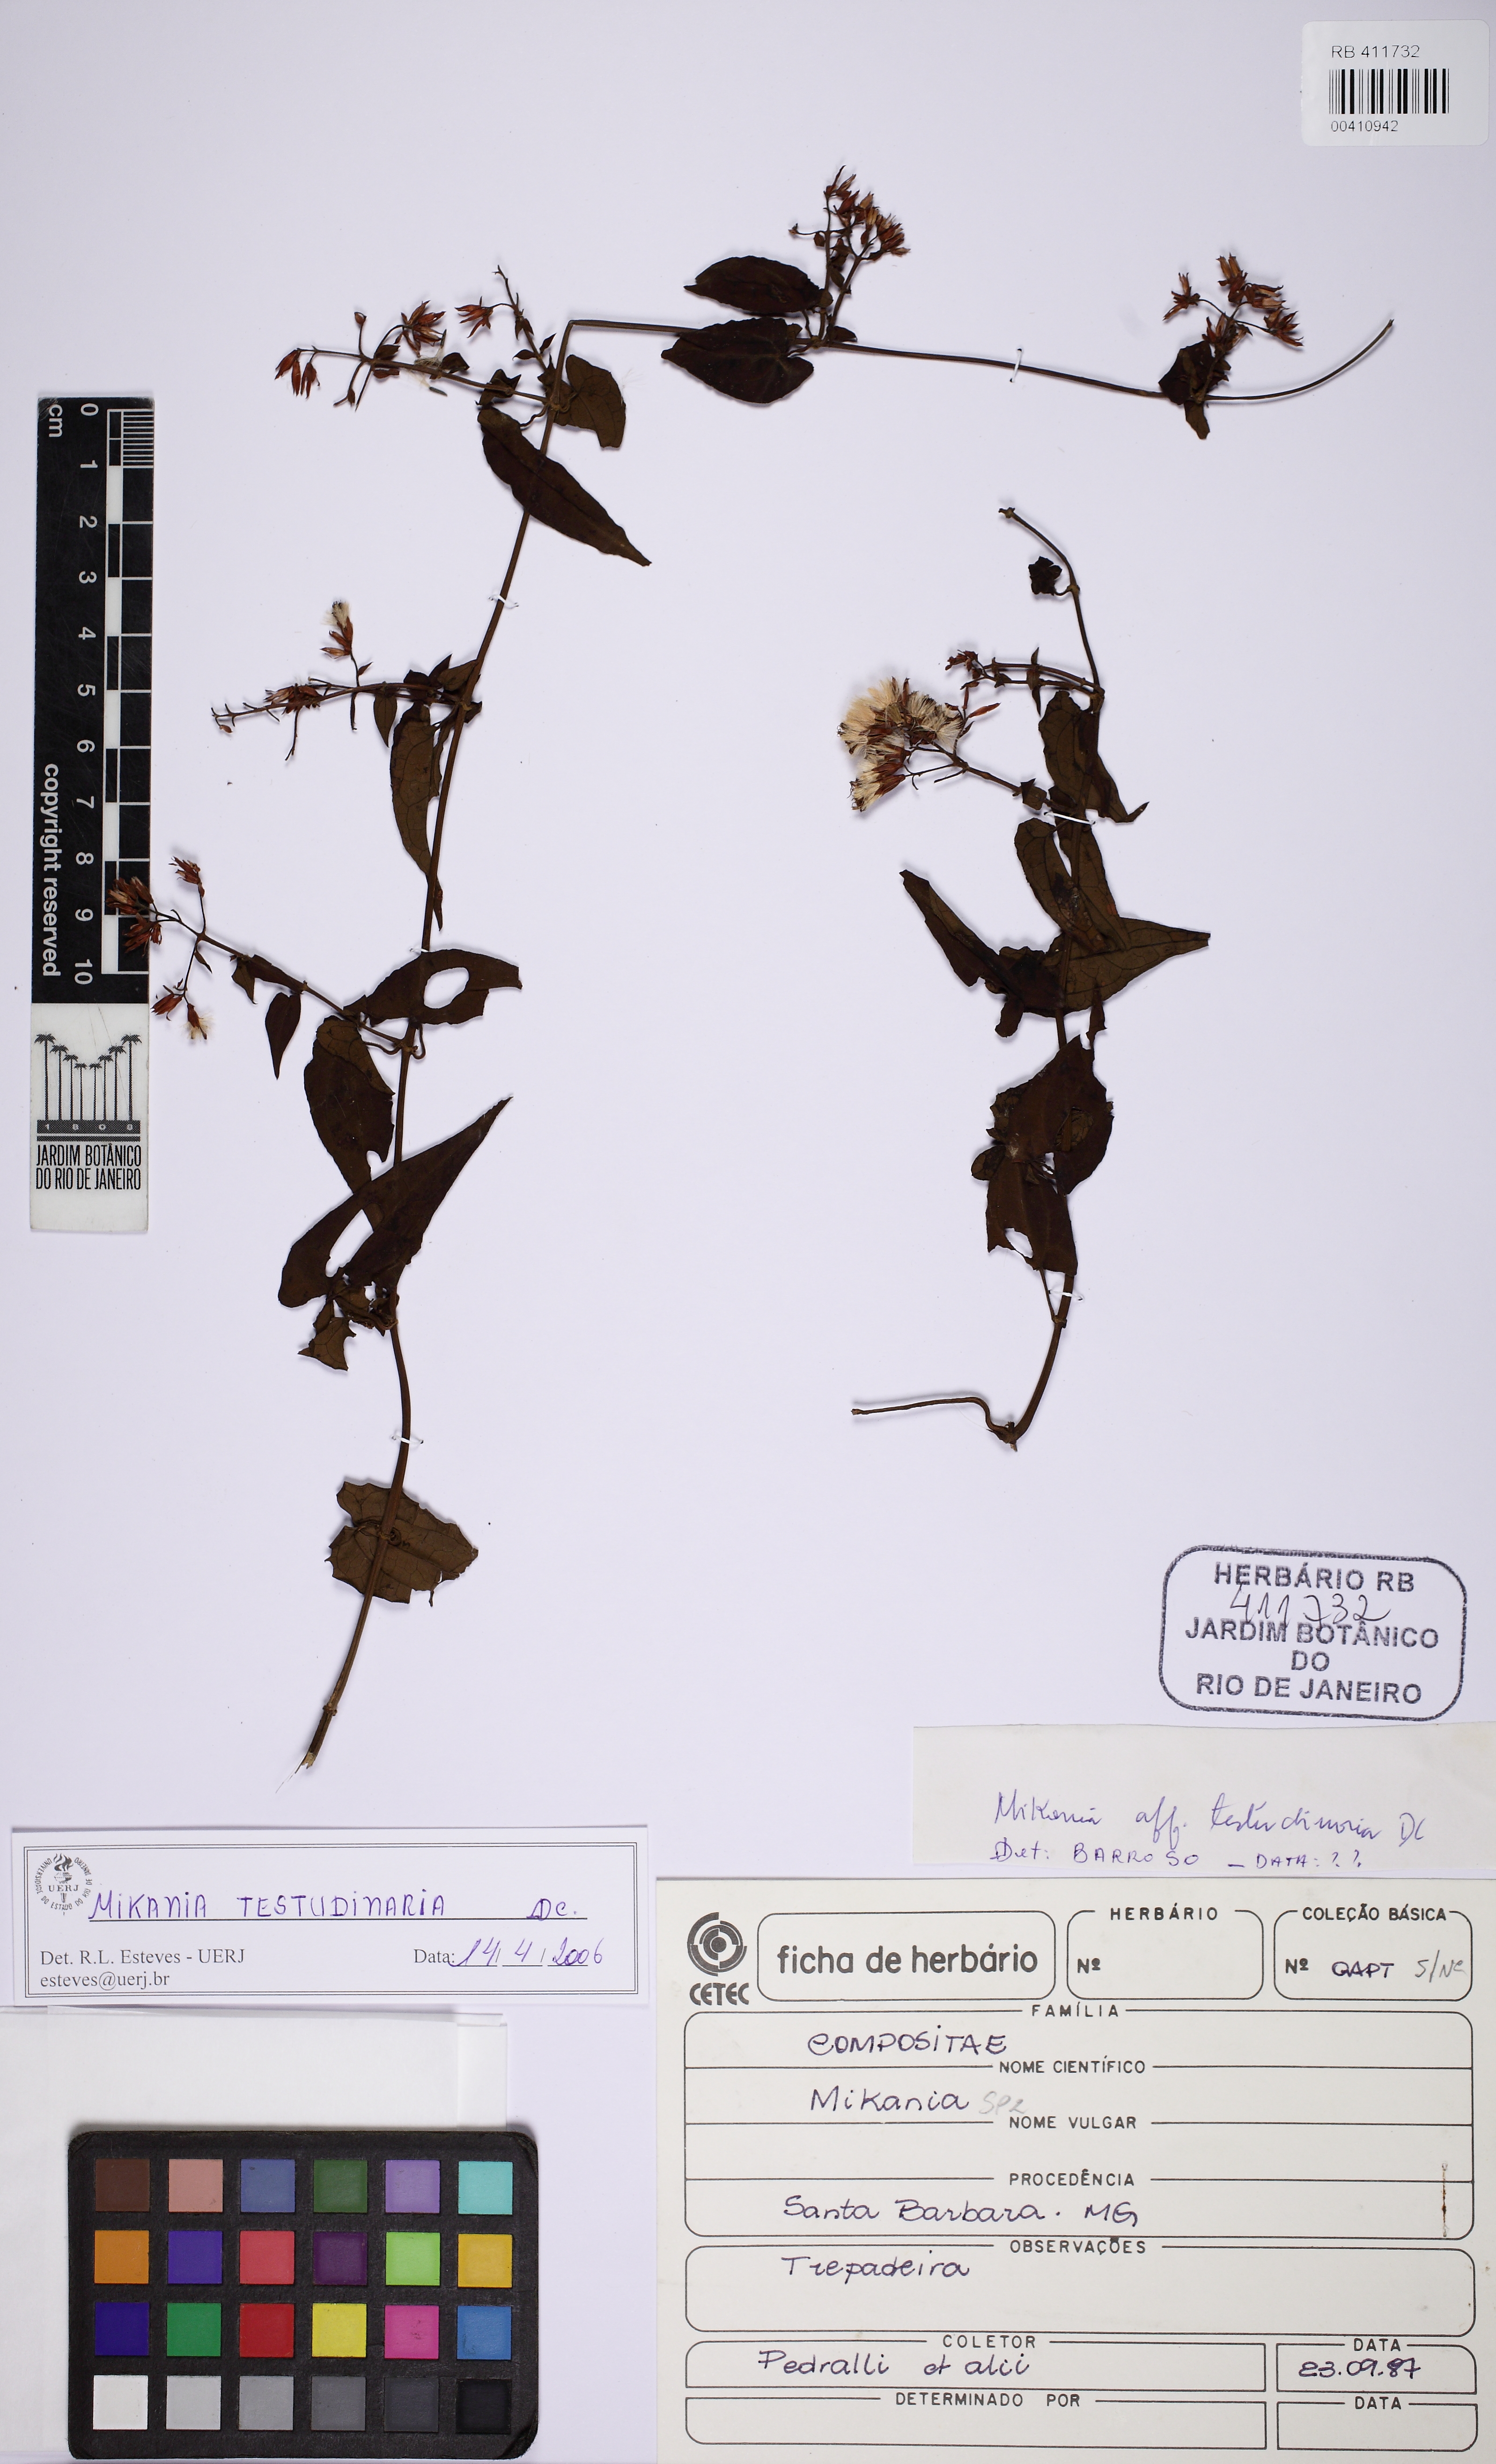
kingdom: Plantae
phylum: Tracheophyta
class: Magnoliopsida
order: Asterales
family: Asteraceae
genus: Mikania
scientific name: Mikania testudinaria
